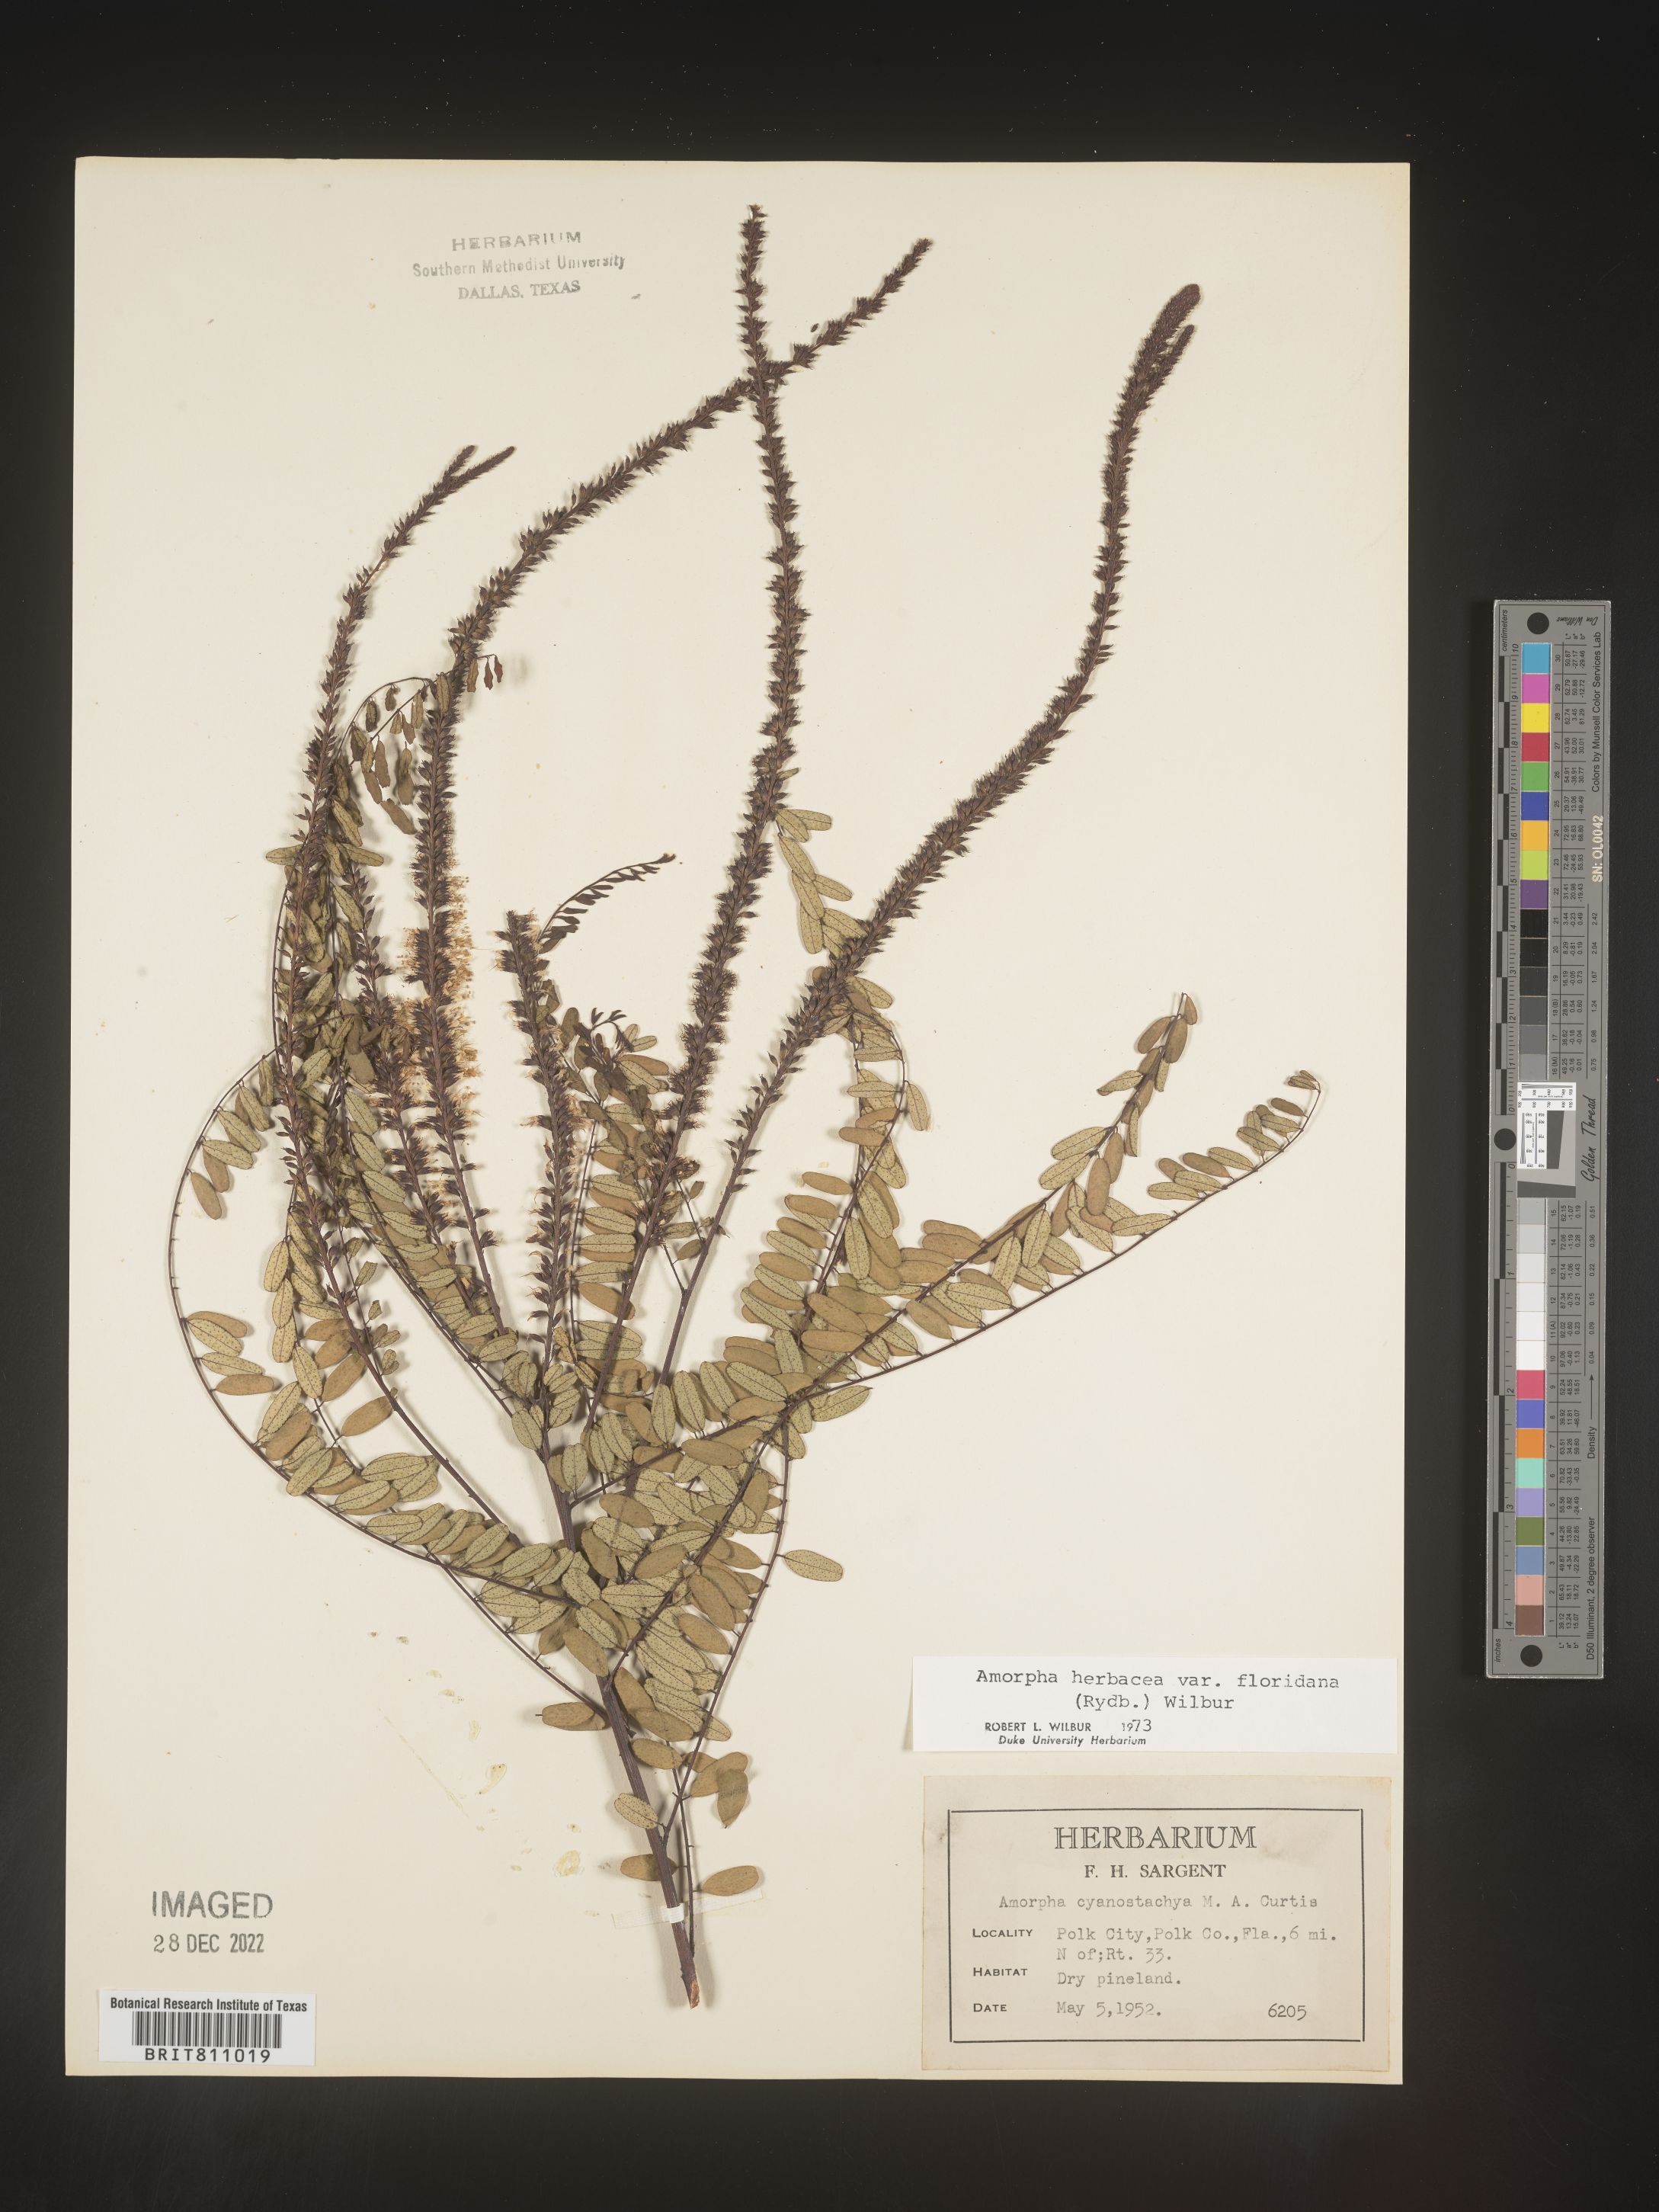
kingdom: Plantae
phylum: Tracheophyta
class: Magnoliopsida
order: Fabales
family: Fabaceae
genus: Amorpha
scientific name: Amorpha herbacea
